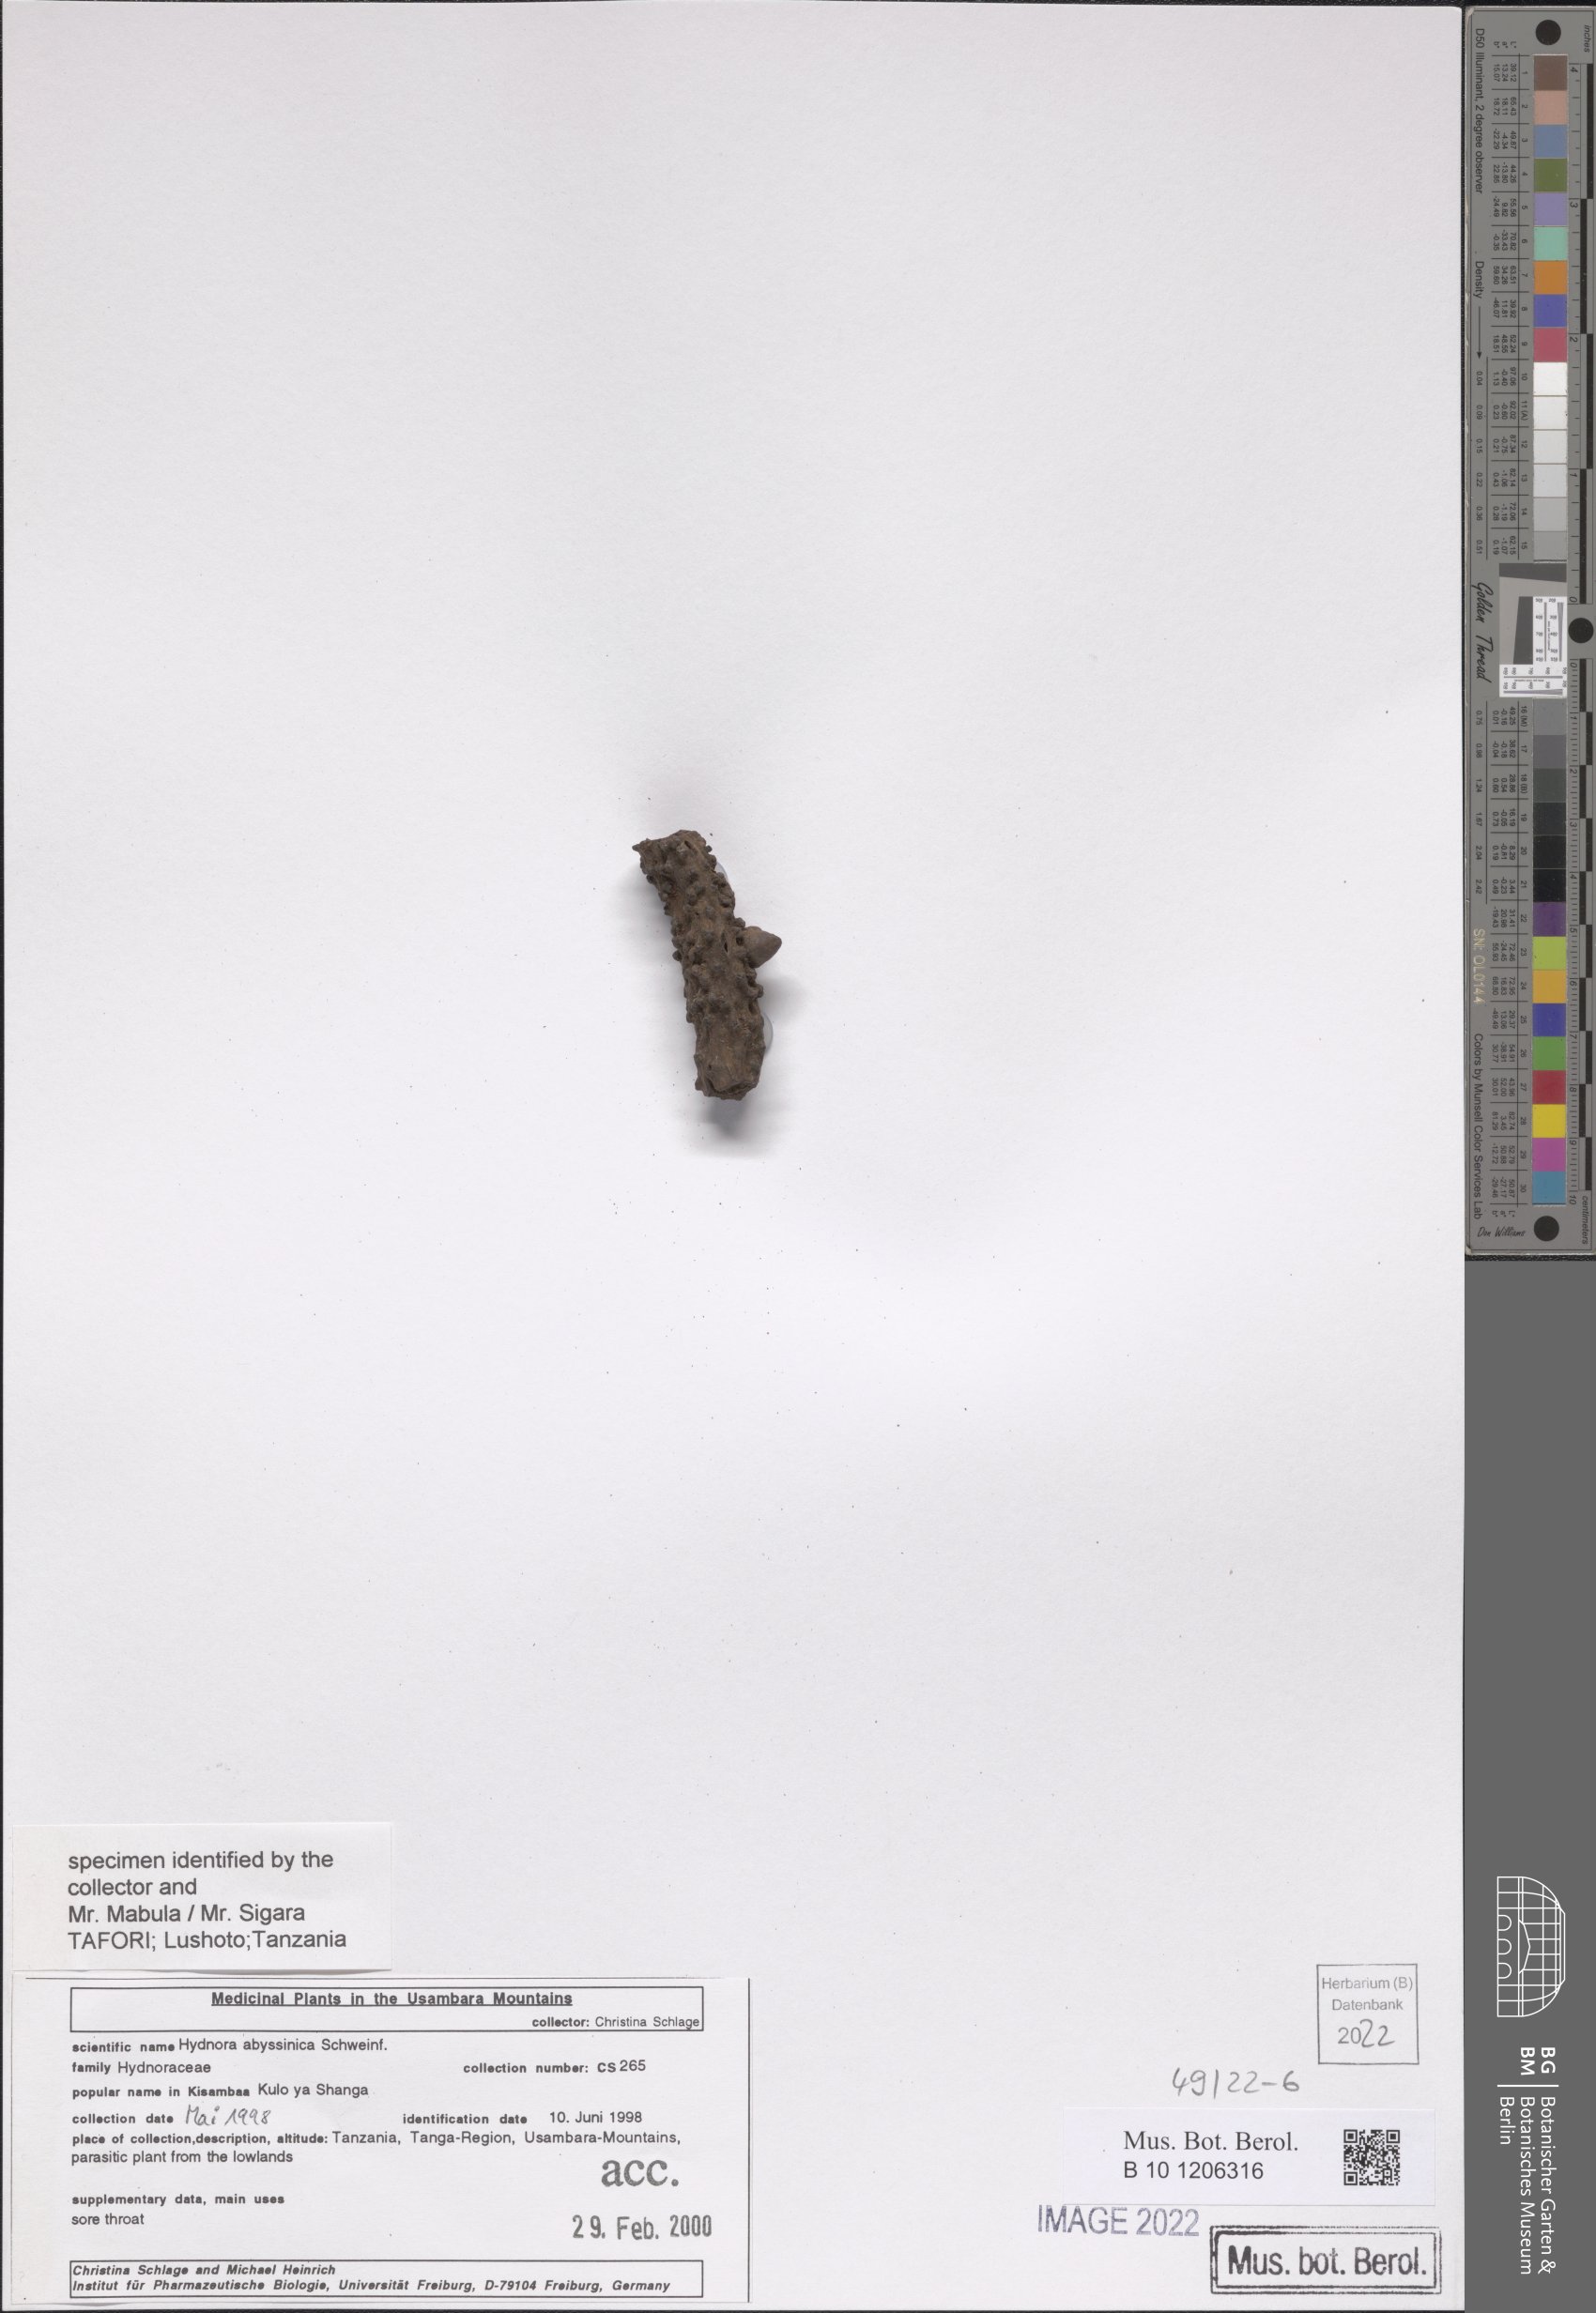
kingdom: Plantae
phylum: Tracheophyta
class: Magnoliopsida
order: Piperales
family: Hydnoraceae
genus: Hydnora
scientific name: Hydnora abyssinica
